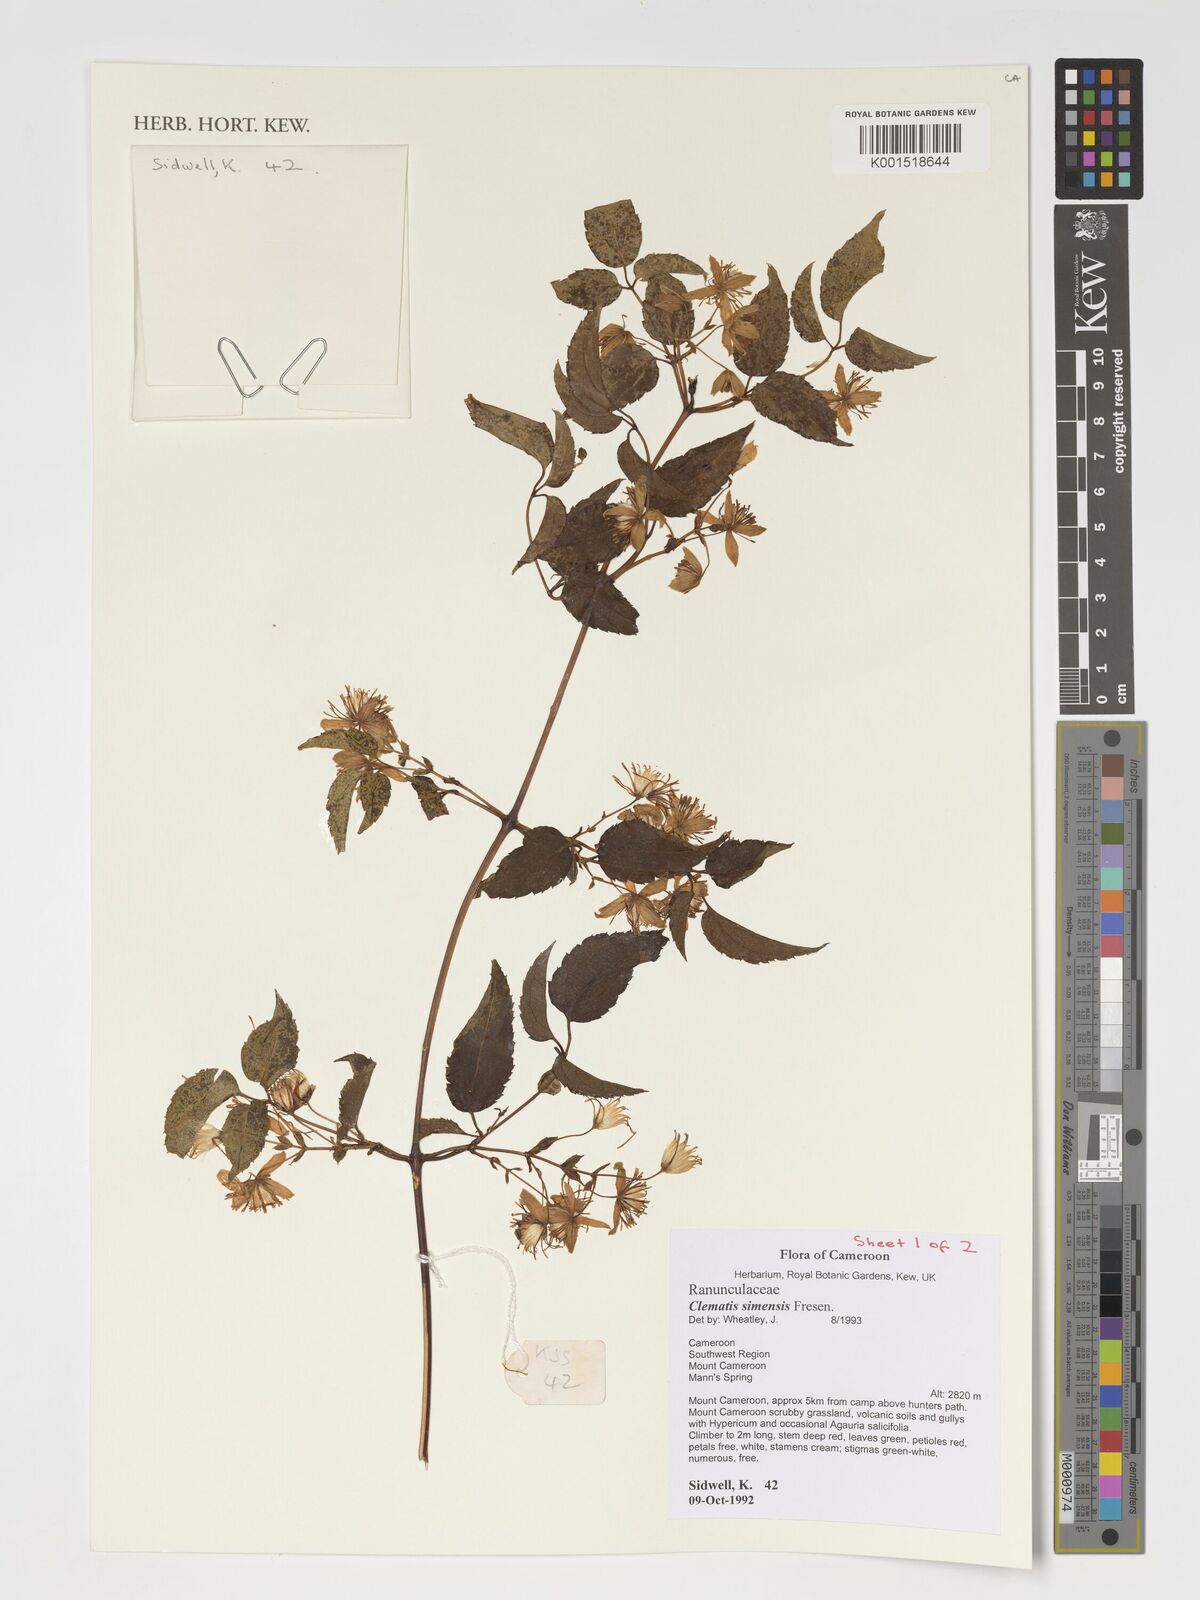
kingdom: Plantae
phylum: Tracheophyta
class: Magnoliopsida
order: Ranunculales
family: Ranunculaceae
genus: Clematis
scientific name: Clematis simensis
